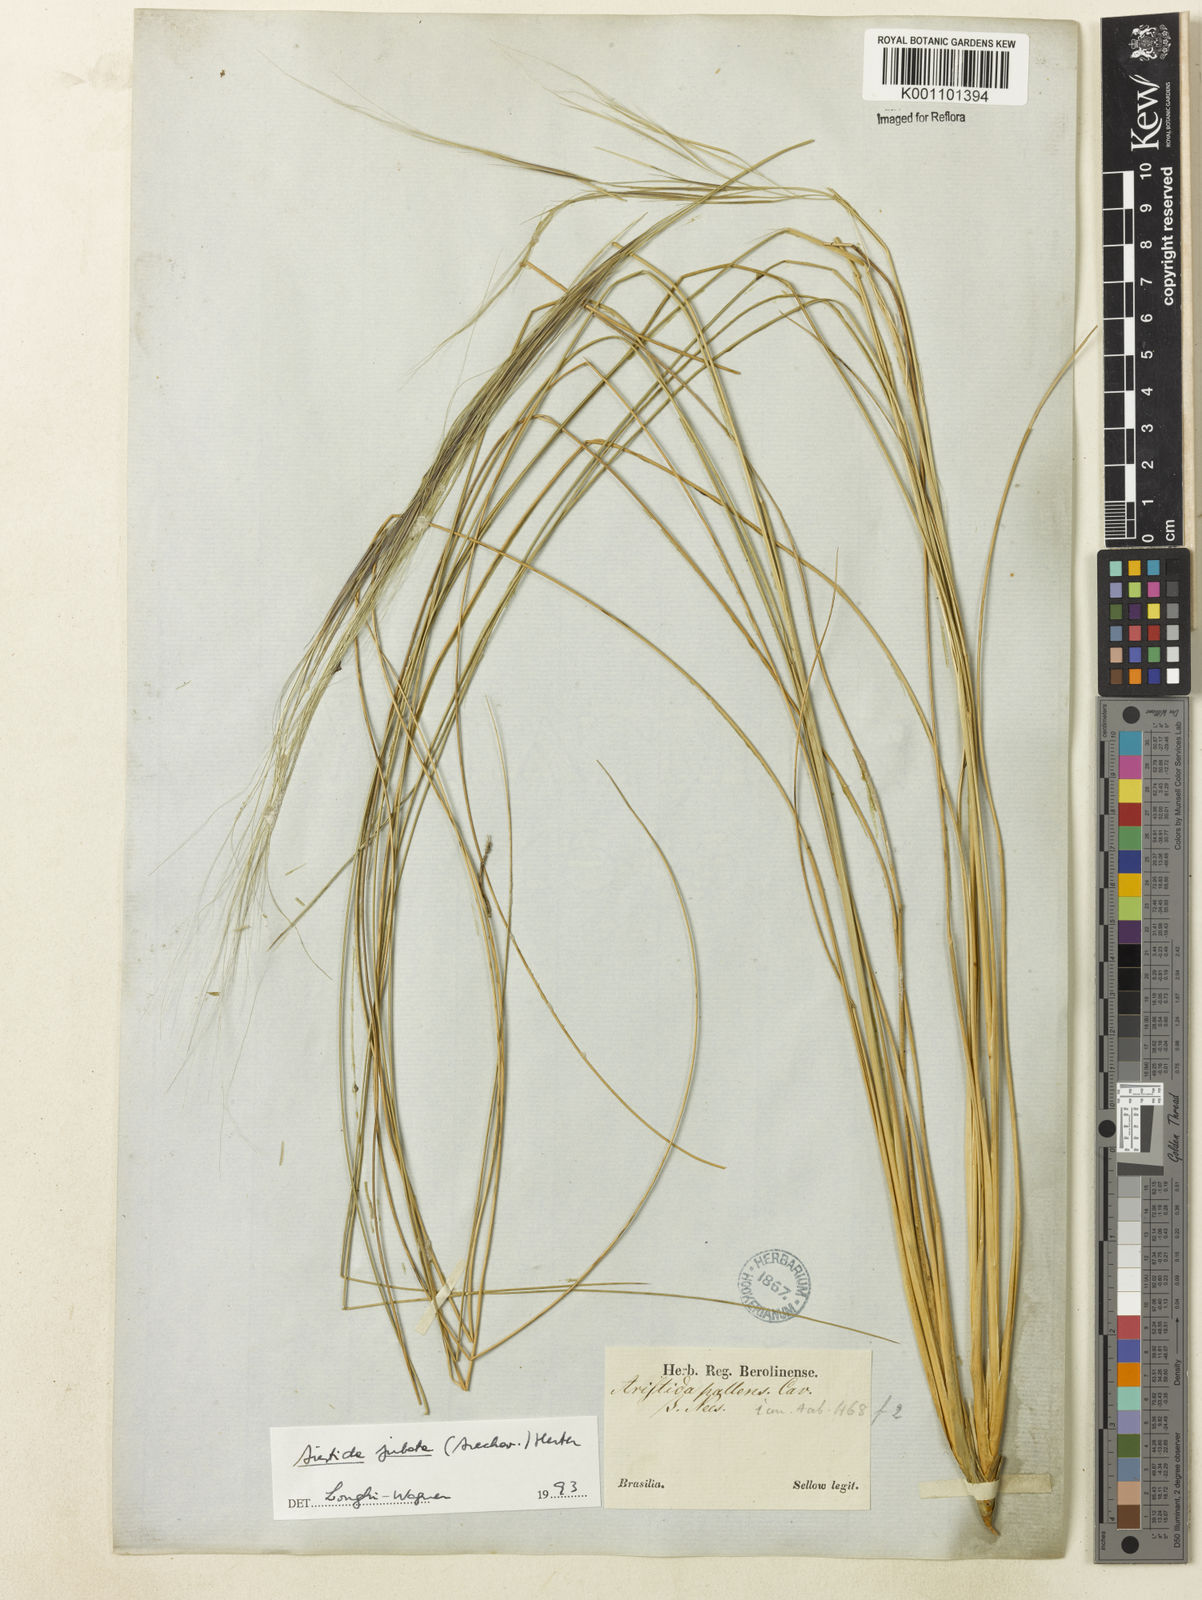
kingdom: Plantae
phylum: Tracheophyta
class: Liliopsida
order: Poales
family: Poaceae
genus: Aristida
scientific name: Aristida jubata
